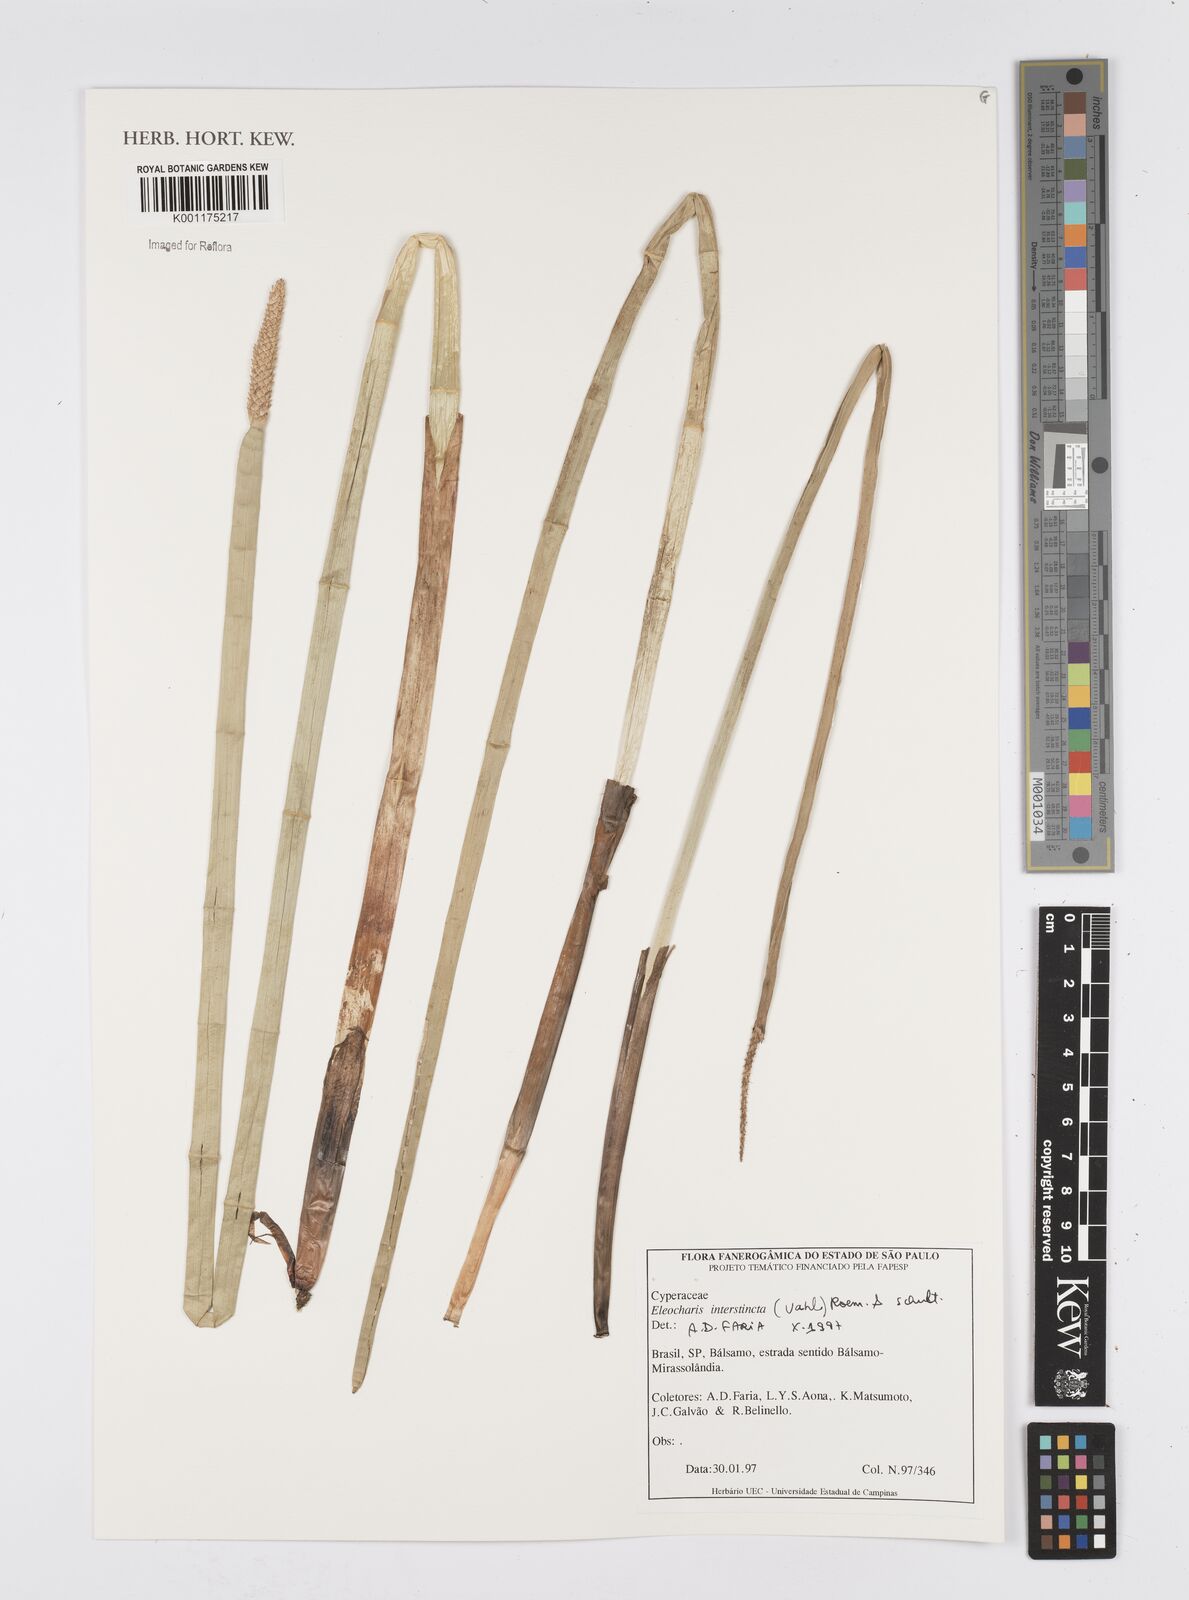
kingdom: Plantae
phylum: Tracheophyta
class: Liliopsida
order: Poales
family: Cyperaceae
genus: Eleocharis
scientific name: Eleocharis interstincta
